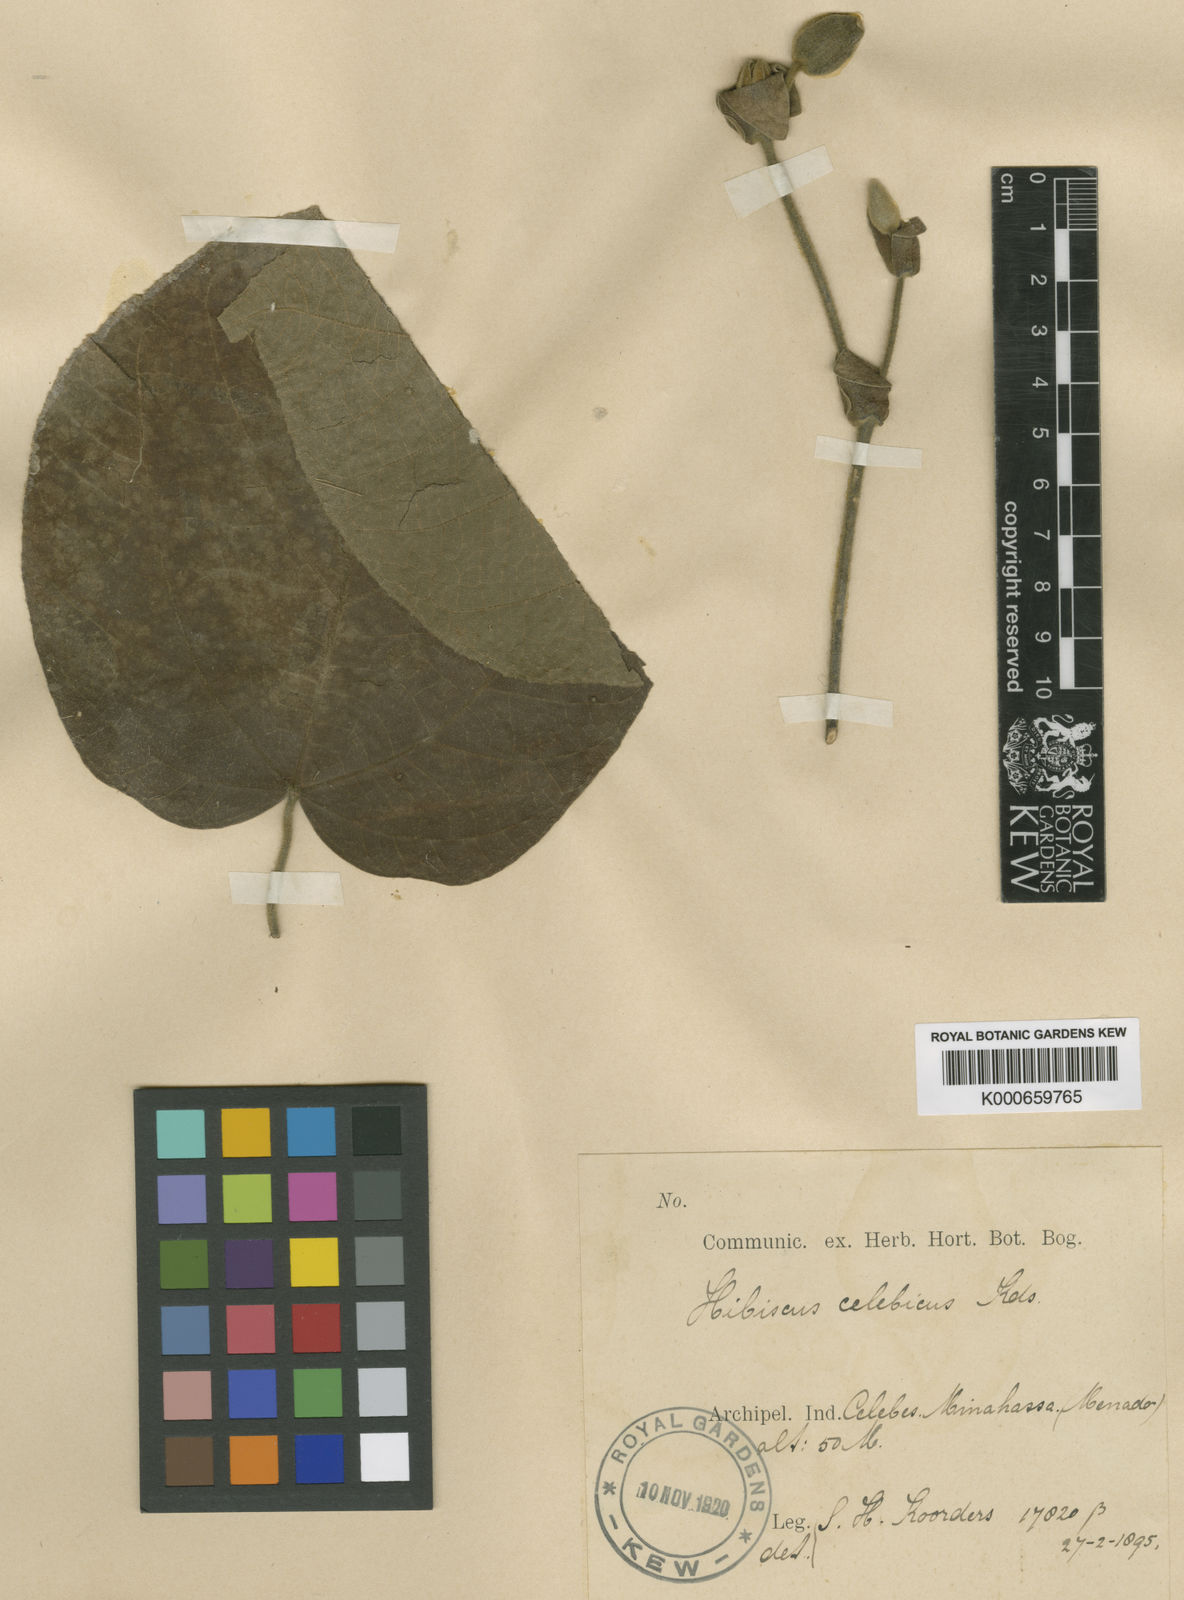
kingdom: Plantae
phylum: Tracheophyta
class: Magnoliopsida
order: Malvales
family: Malvaceae
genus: Talipariti
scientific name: Talipariti celebicum
